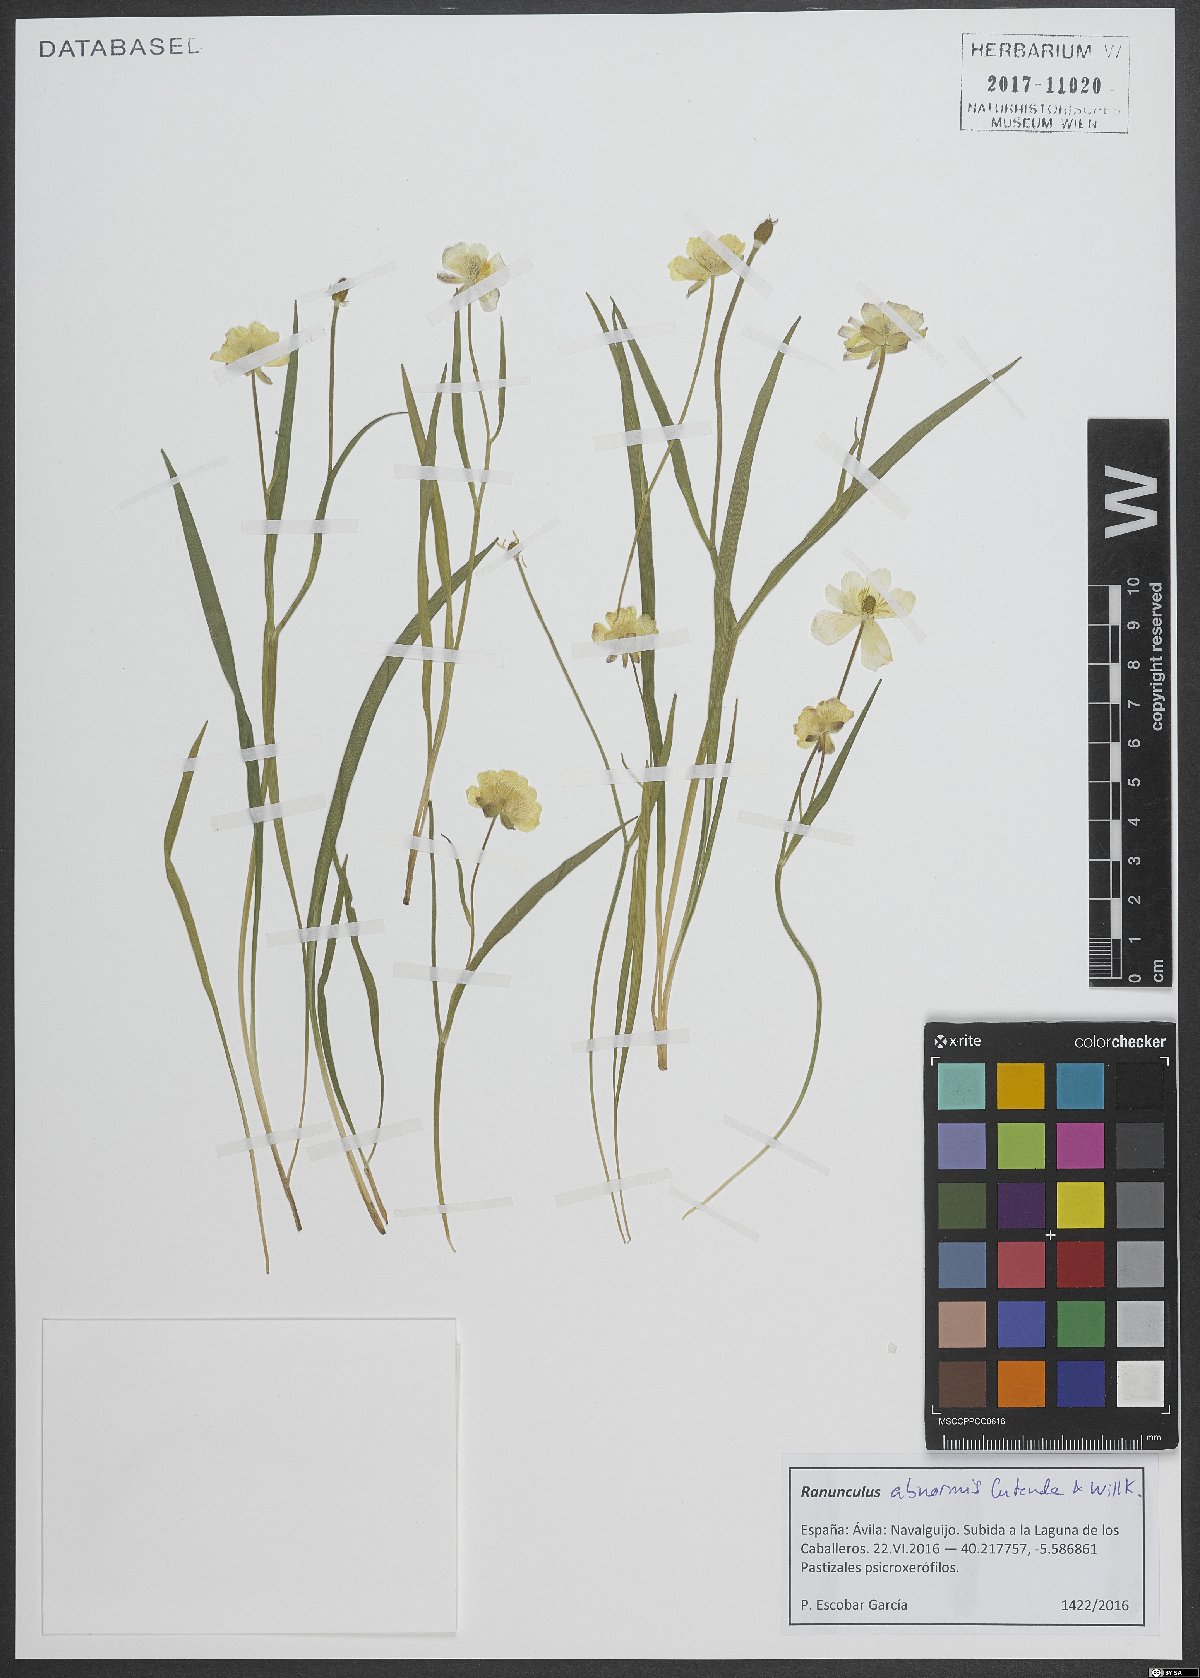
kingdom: Plantae
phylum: Tracheophyta
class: Magnoliopsida
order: Ranunculales
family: Ranunculaceae
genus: Ranunculus
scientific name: Ranunculus abnormis
